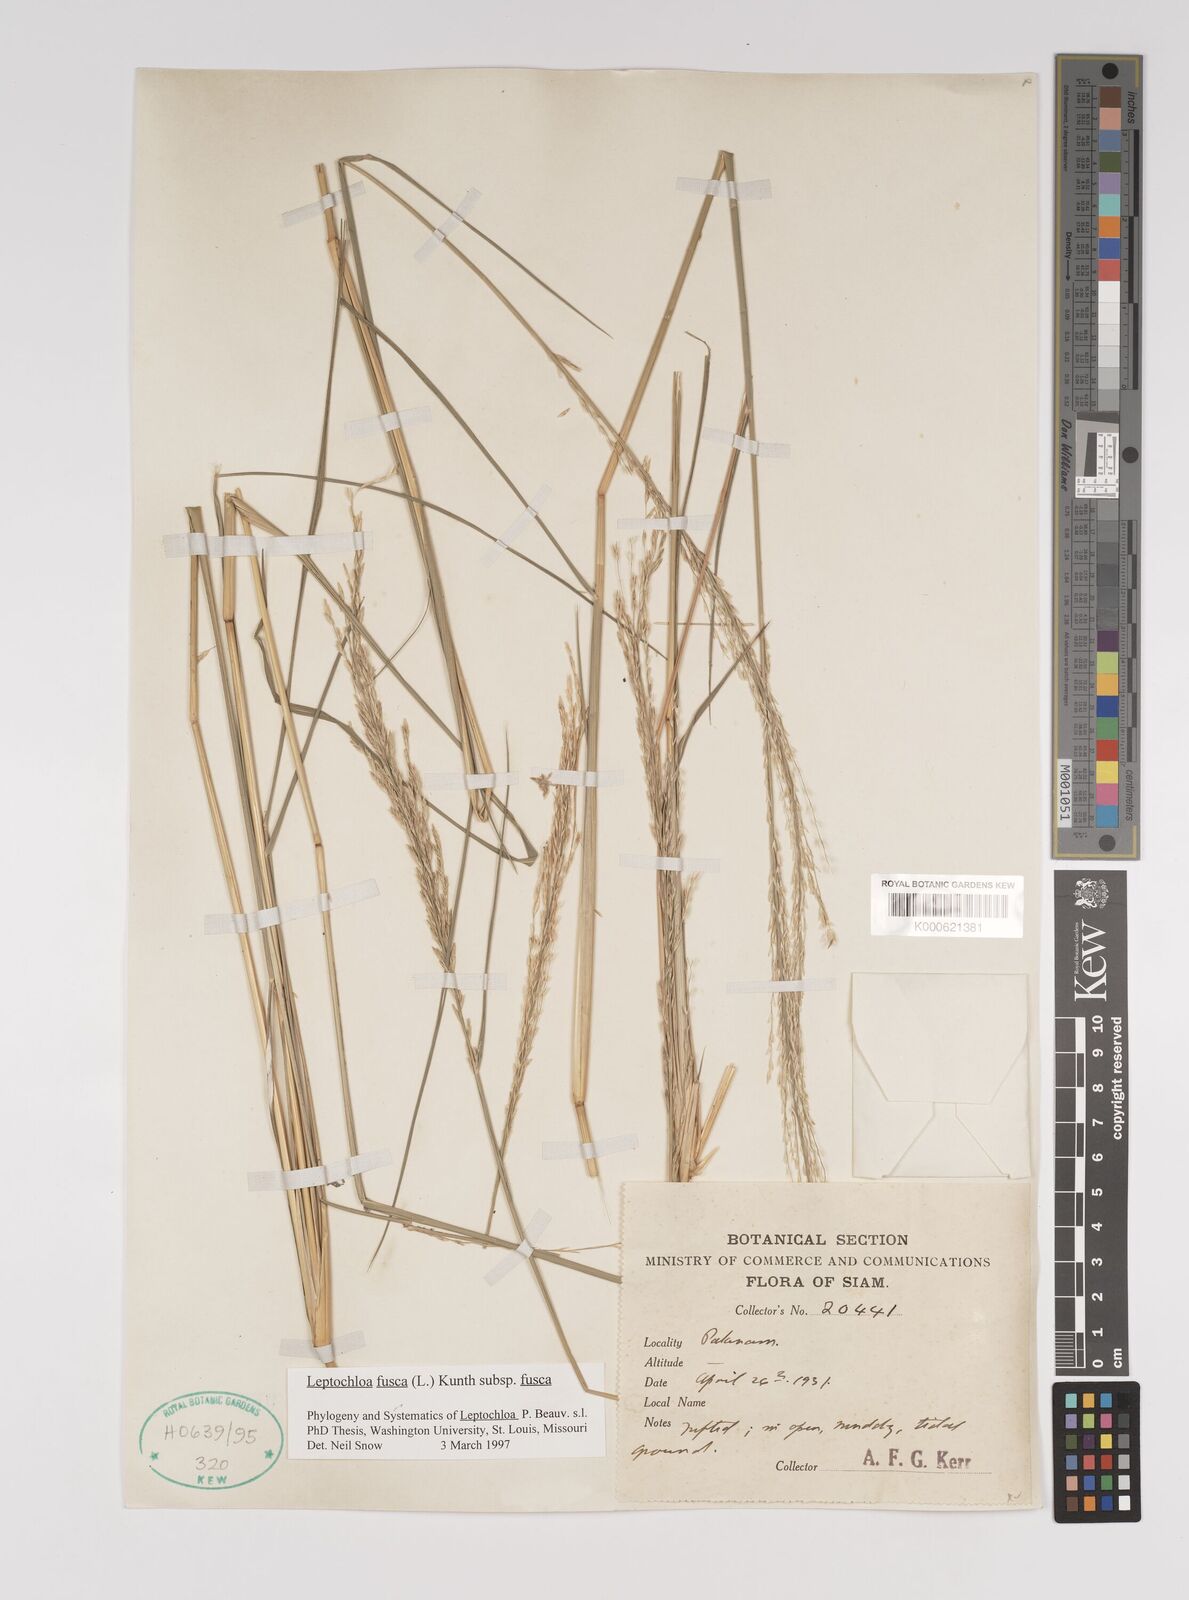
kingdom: Plantae
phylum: Tracheophyta
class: Liliopsida
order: Poales
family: Poaceae
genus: Diplachne
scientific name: Diplachne fusca
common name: Brown beetle grass
